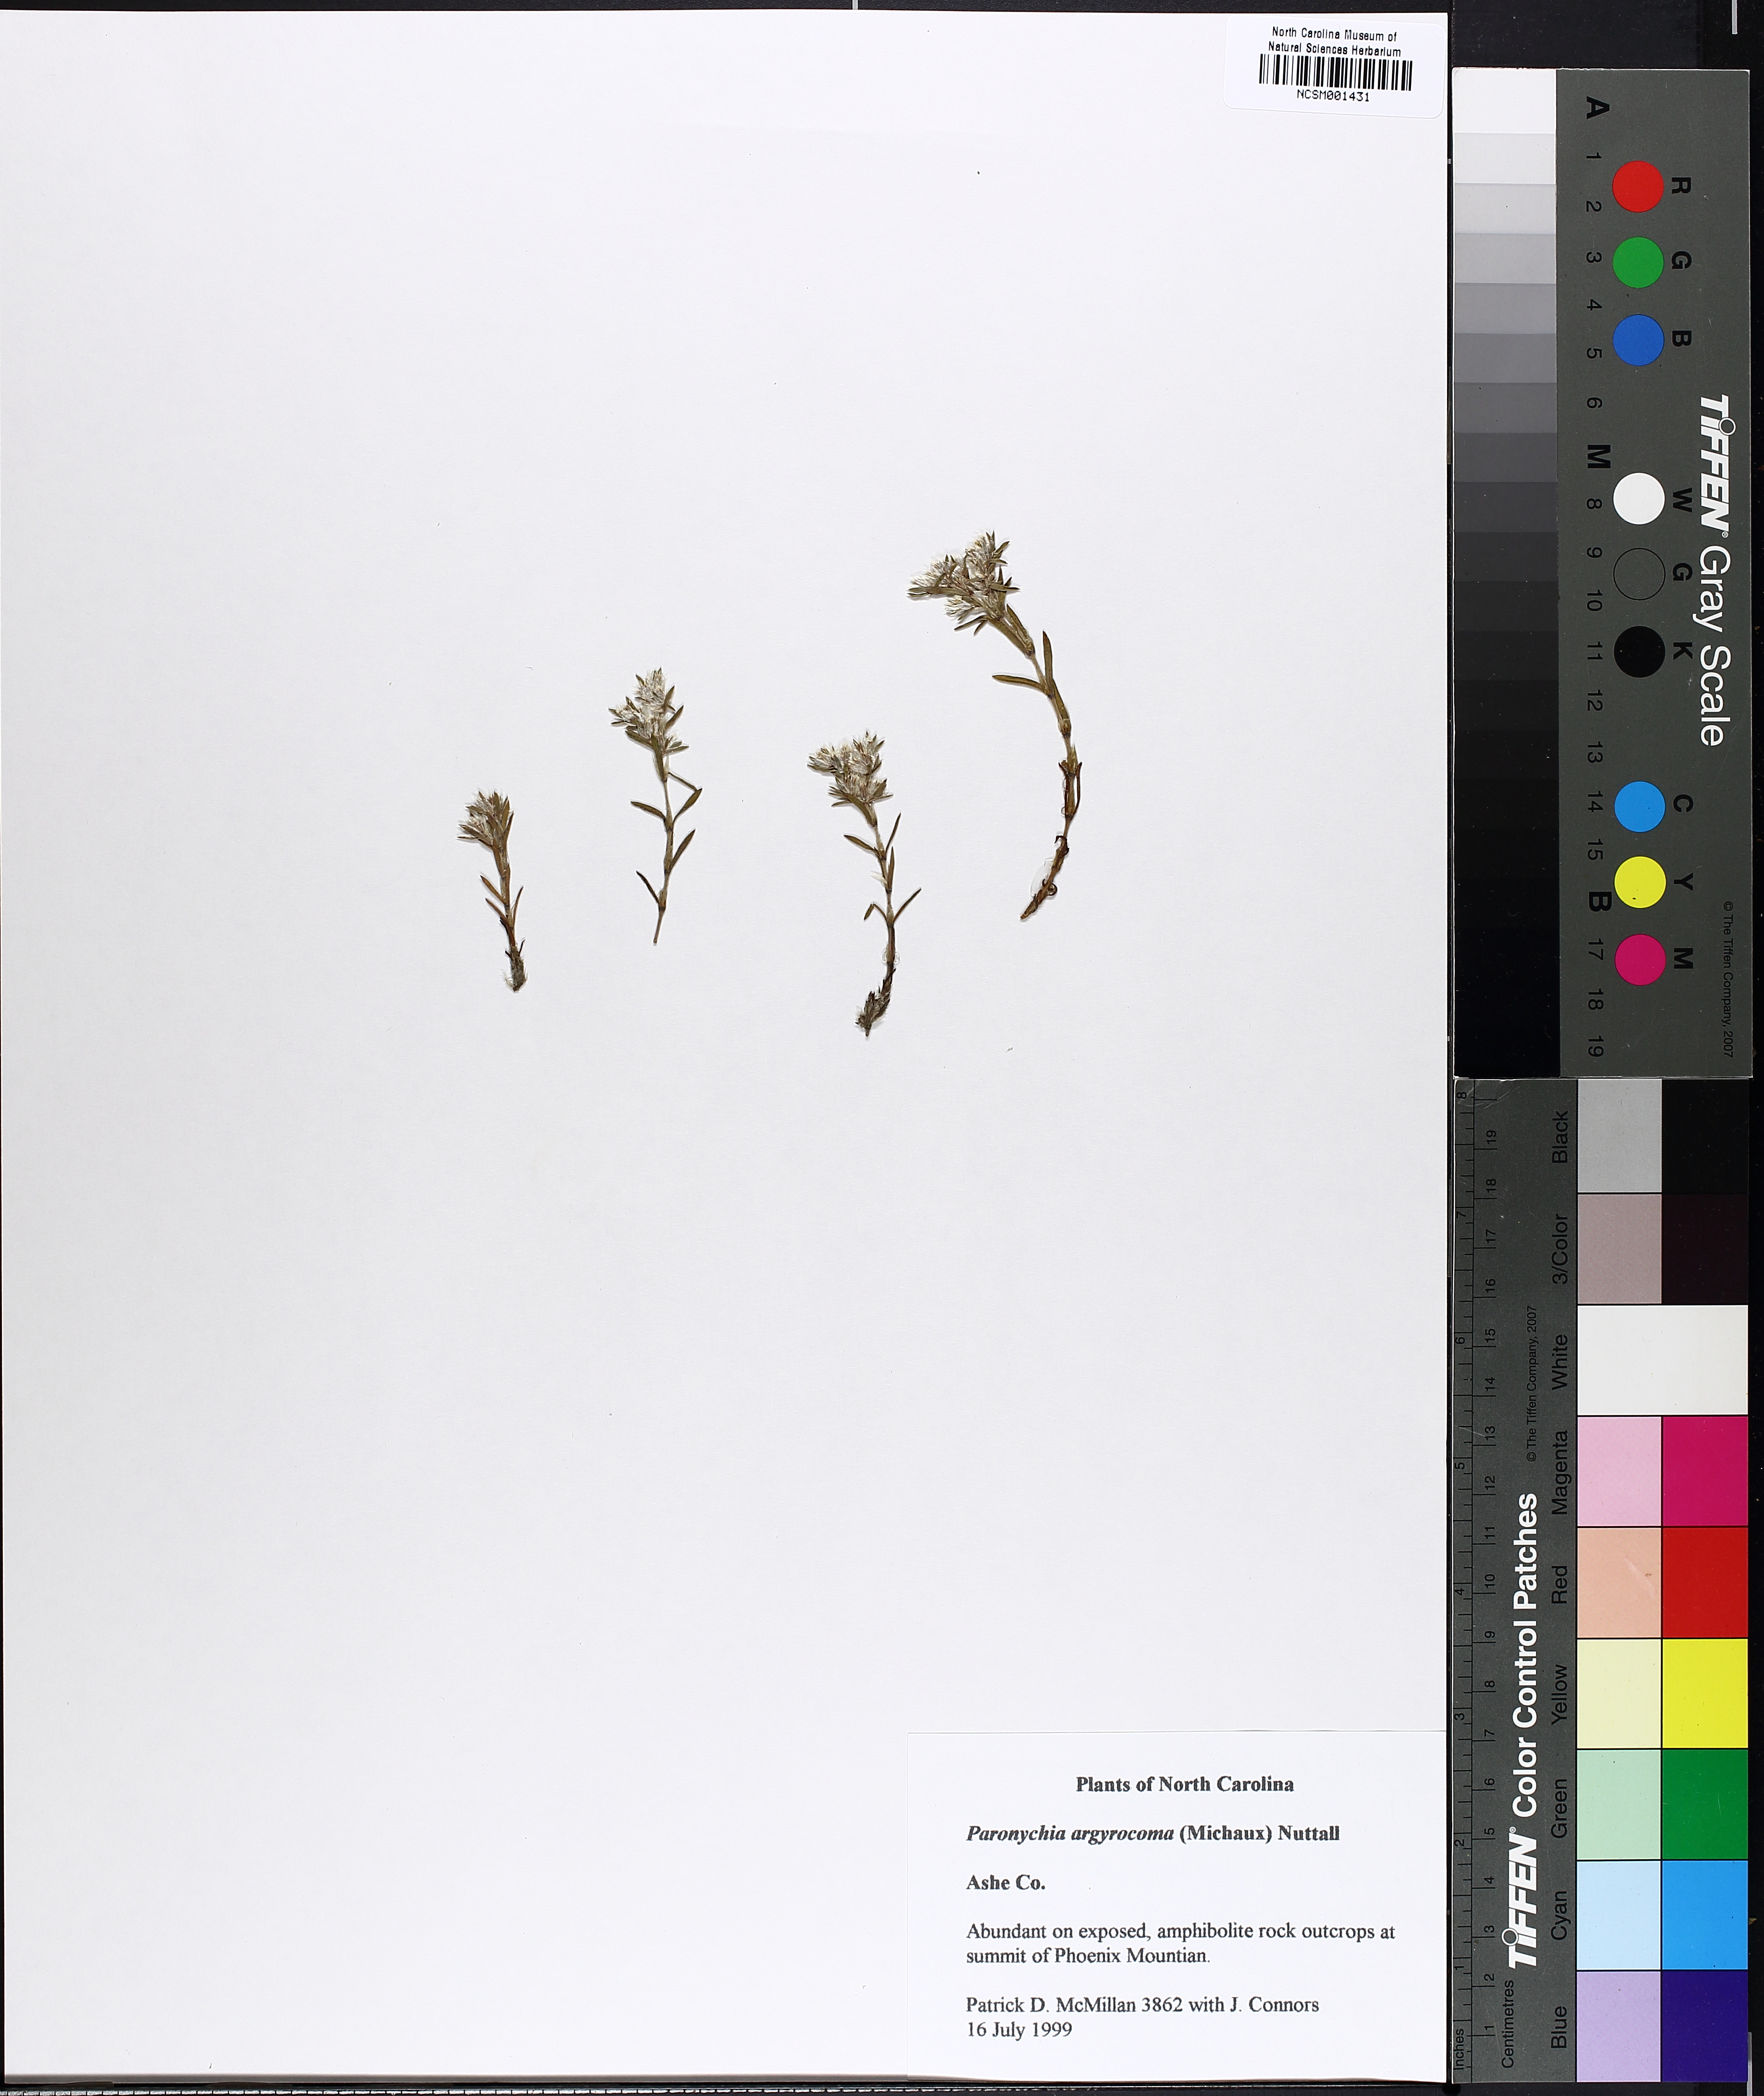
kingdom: Plantae
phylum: Tracheophyta
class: Magnoliopsida
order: Caryophyllales
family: Caryophyllaceae
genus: Paronychia
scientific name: Paronychia argyrocoma
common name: Silverling
